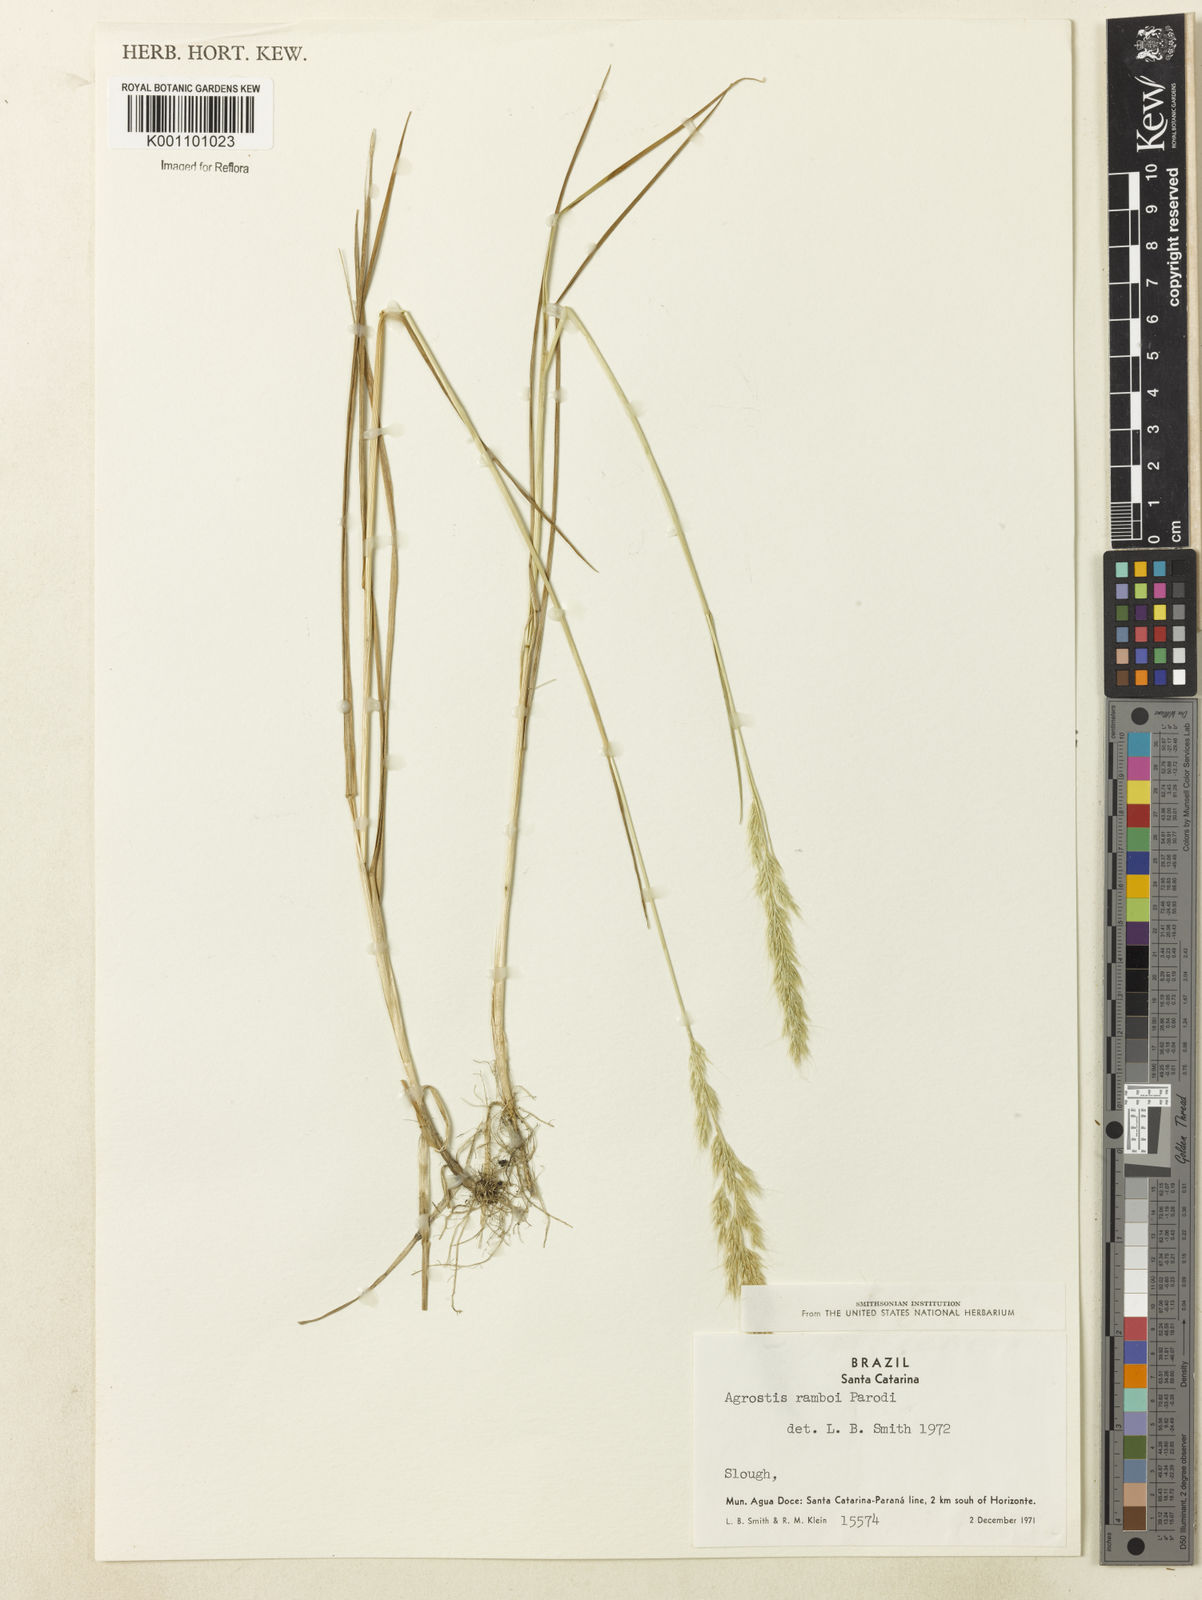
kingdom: Plantae
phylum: Tracheophyta
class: Liliopsida
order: Poales
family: Poaceae
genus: Agrostis
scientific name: Agrostis hygrometrica
